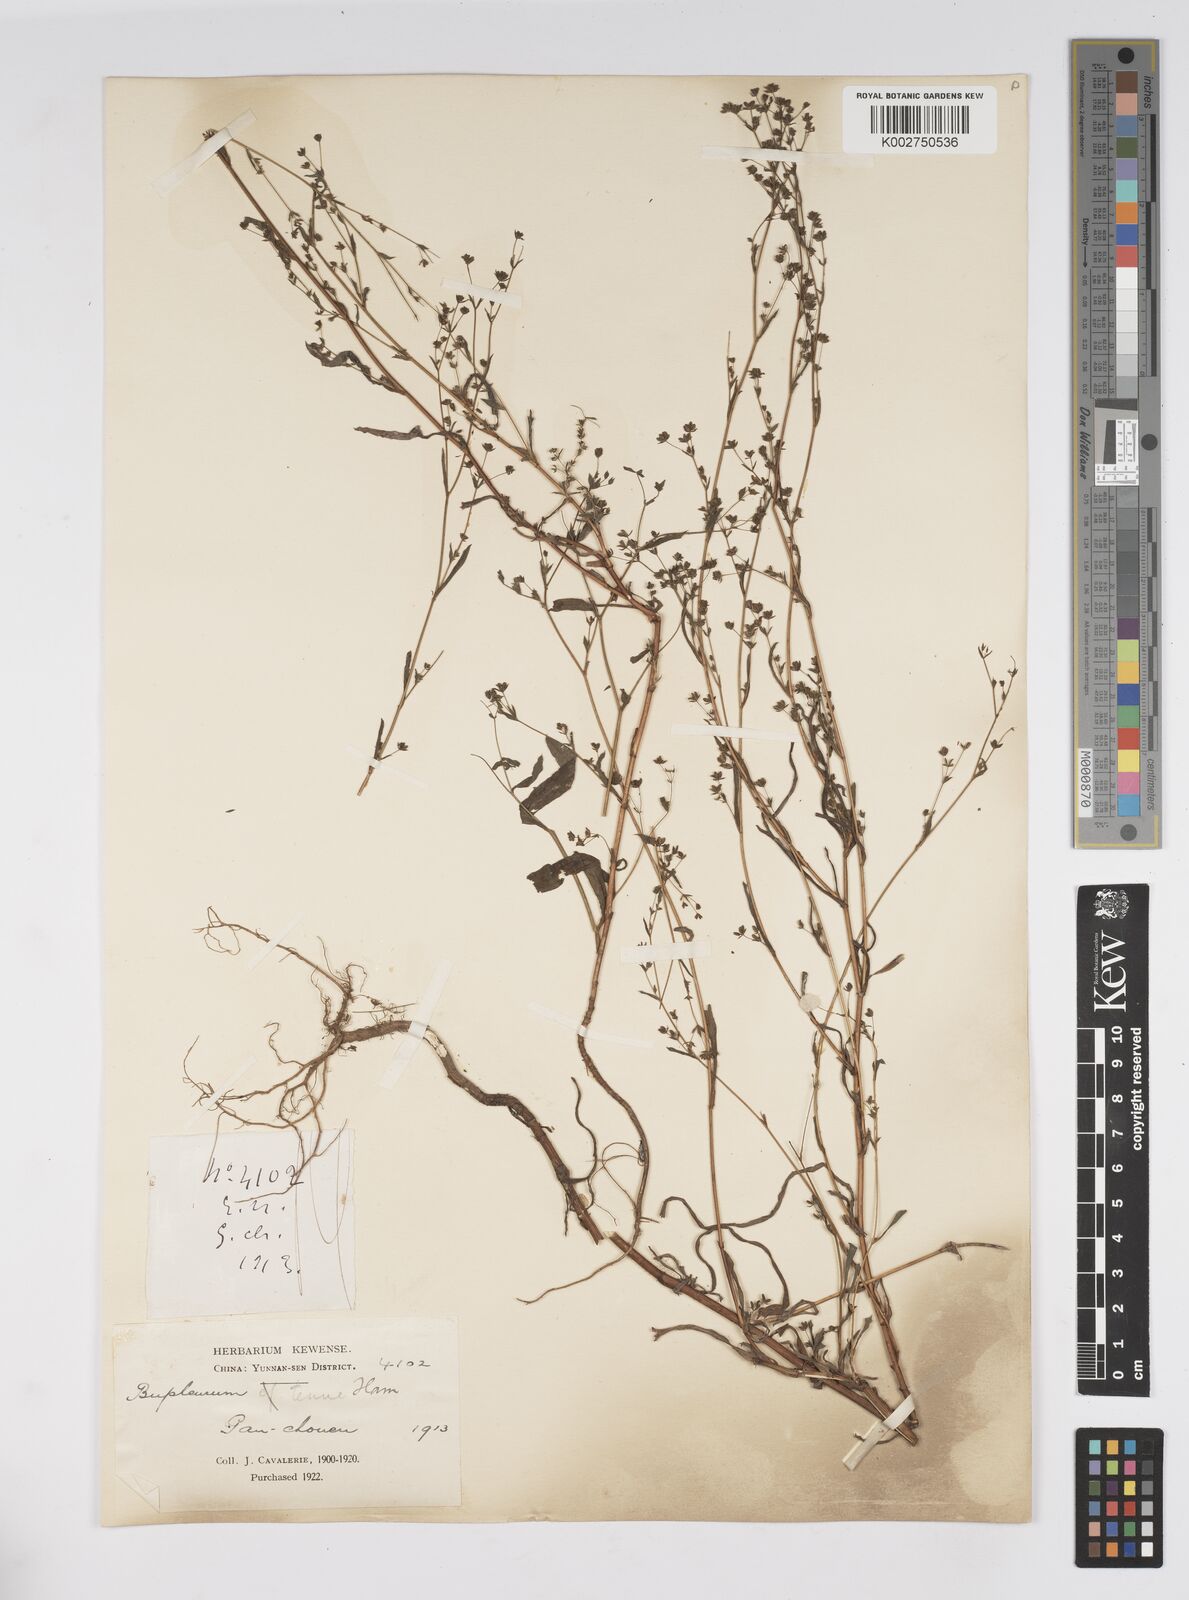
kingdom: Plantae
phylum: Tracheophyta
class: Magnoliopsida
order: Apiales
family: Apiaceae
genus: Bupleurum
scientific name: Bupleurum hamiltonii
